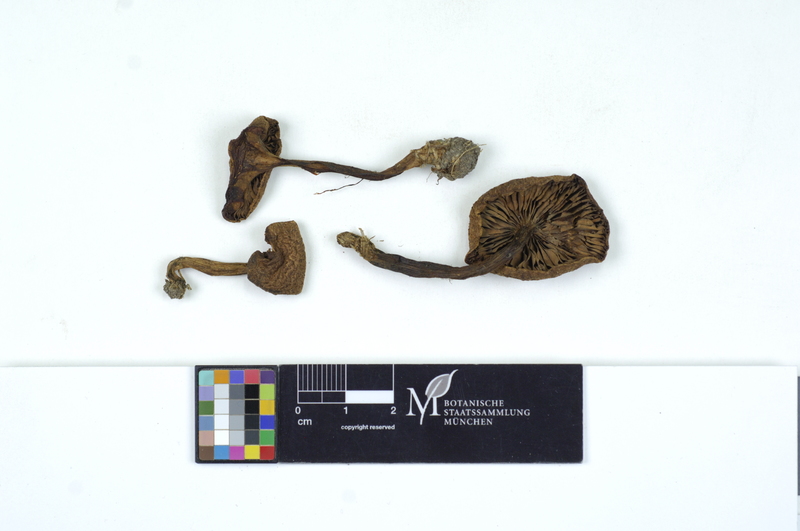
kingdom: Fungi
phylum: Basidiomycota
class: Agaricomycetes
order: Agaricales
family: Tricholomataceae
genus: Tricholoma
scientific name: Tricholoma vaccinum
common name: Scaly knight
